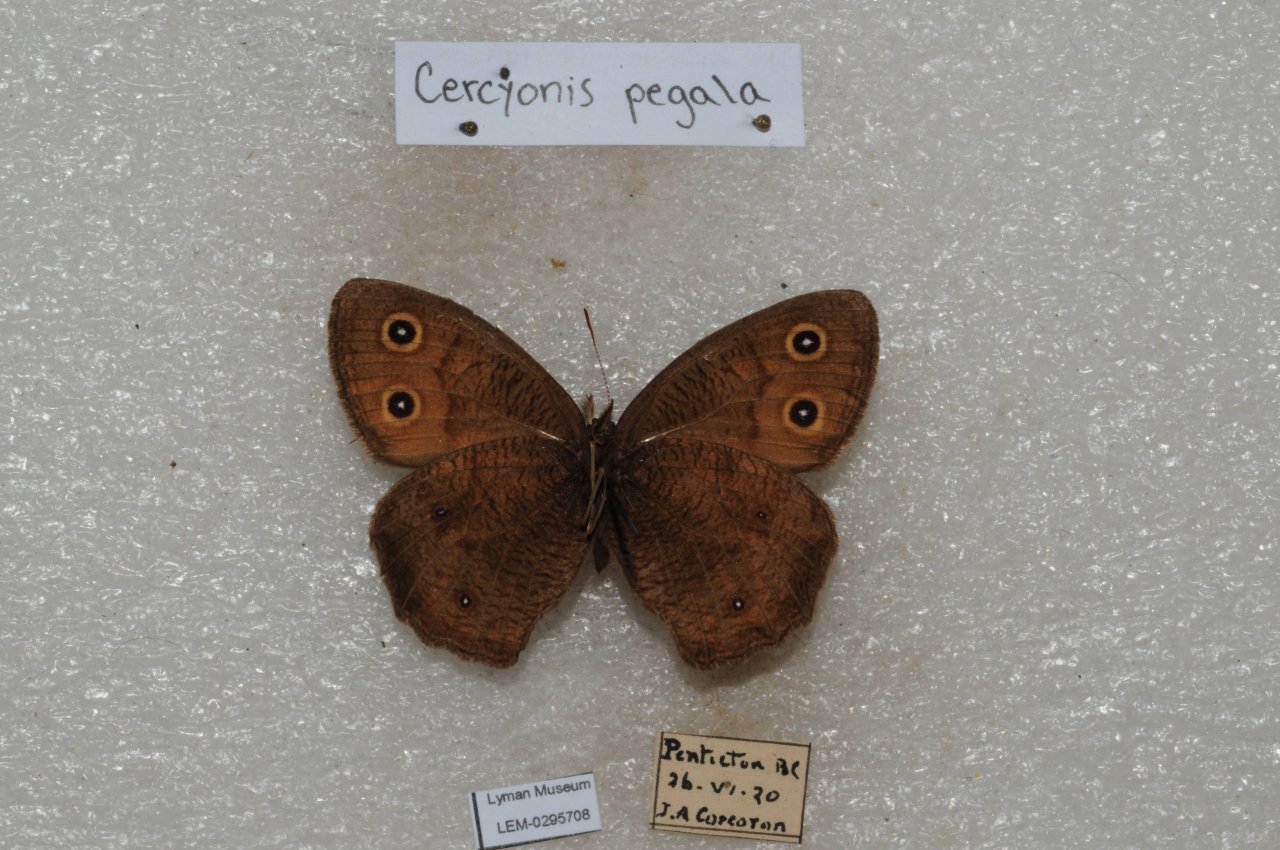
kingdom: Animalia
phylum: Arthropoda
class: Insecta
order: Lepidoptera
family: Nymphalidae
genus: Cercyonis
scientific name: Cercyonis pegala
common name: Common Wood-Nymph
